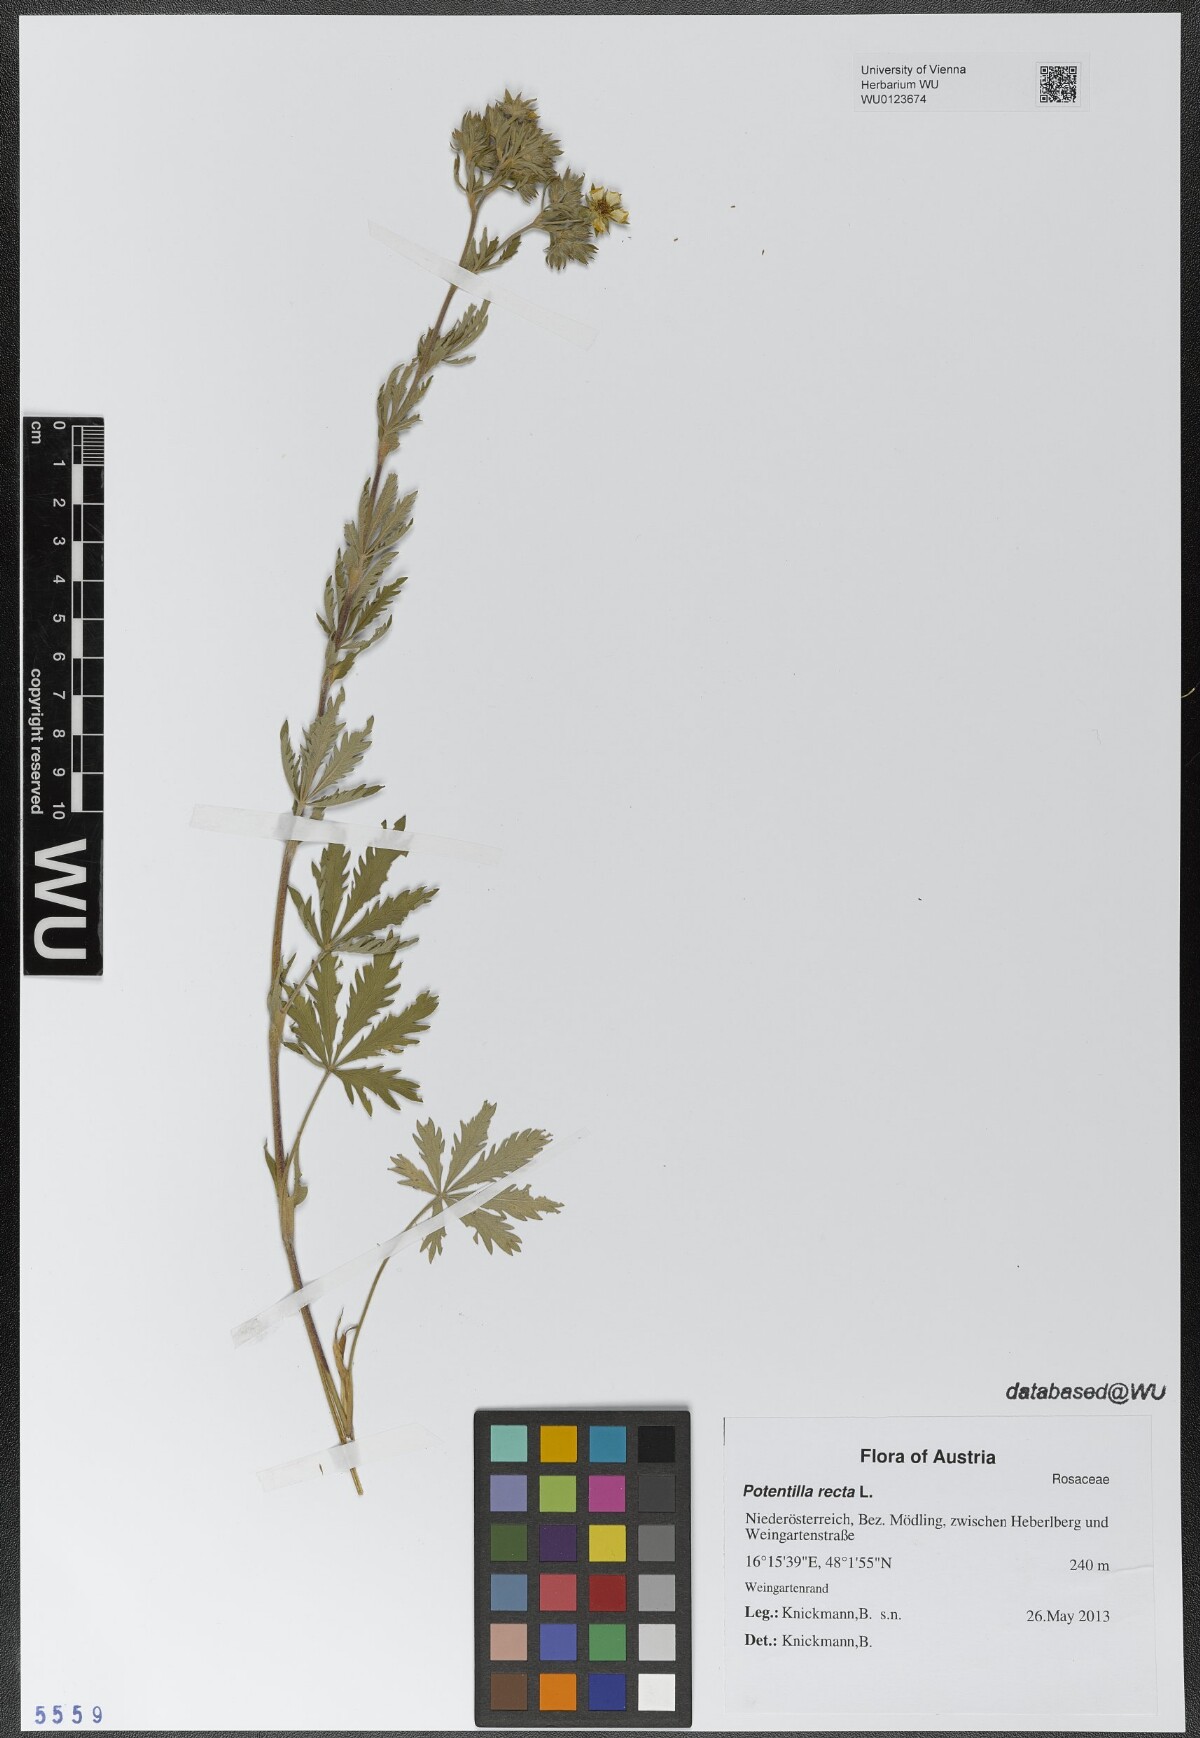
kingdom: Plantae
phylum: Tracheophyta
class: Magnoliopsida
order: Rosales
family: Rosaceae
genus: Potentilla
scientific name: Potentilla recta
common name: Sulphur cinquefoil
